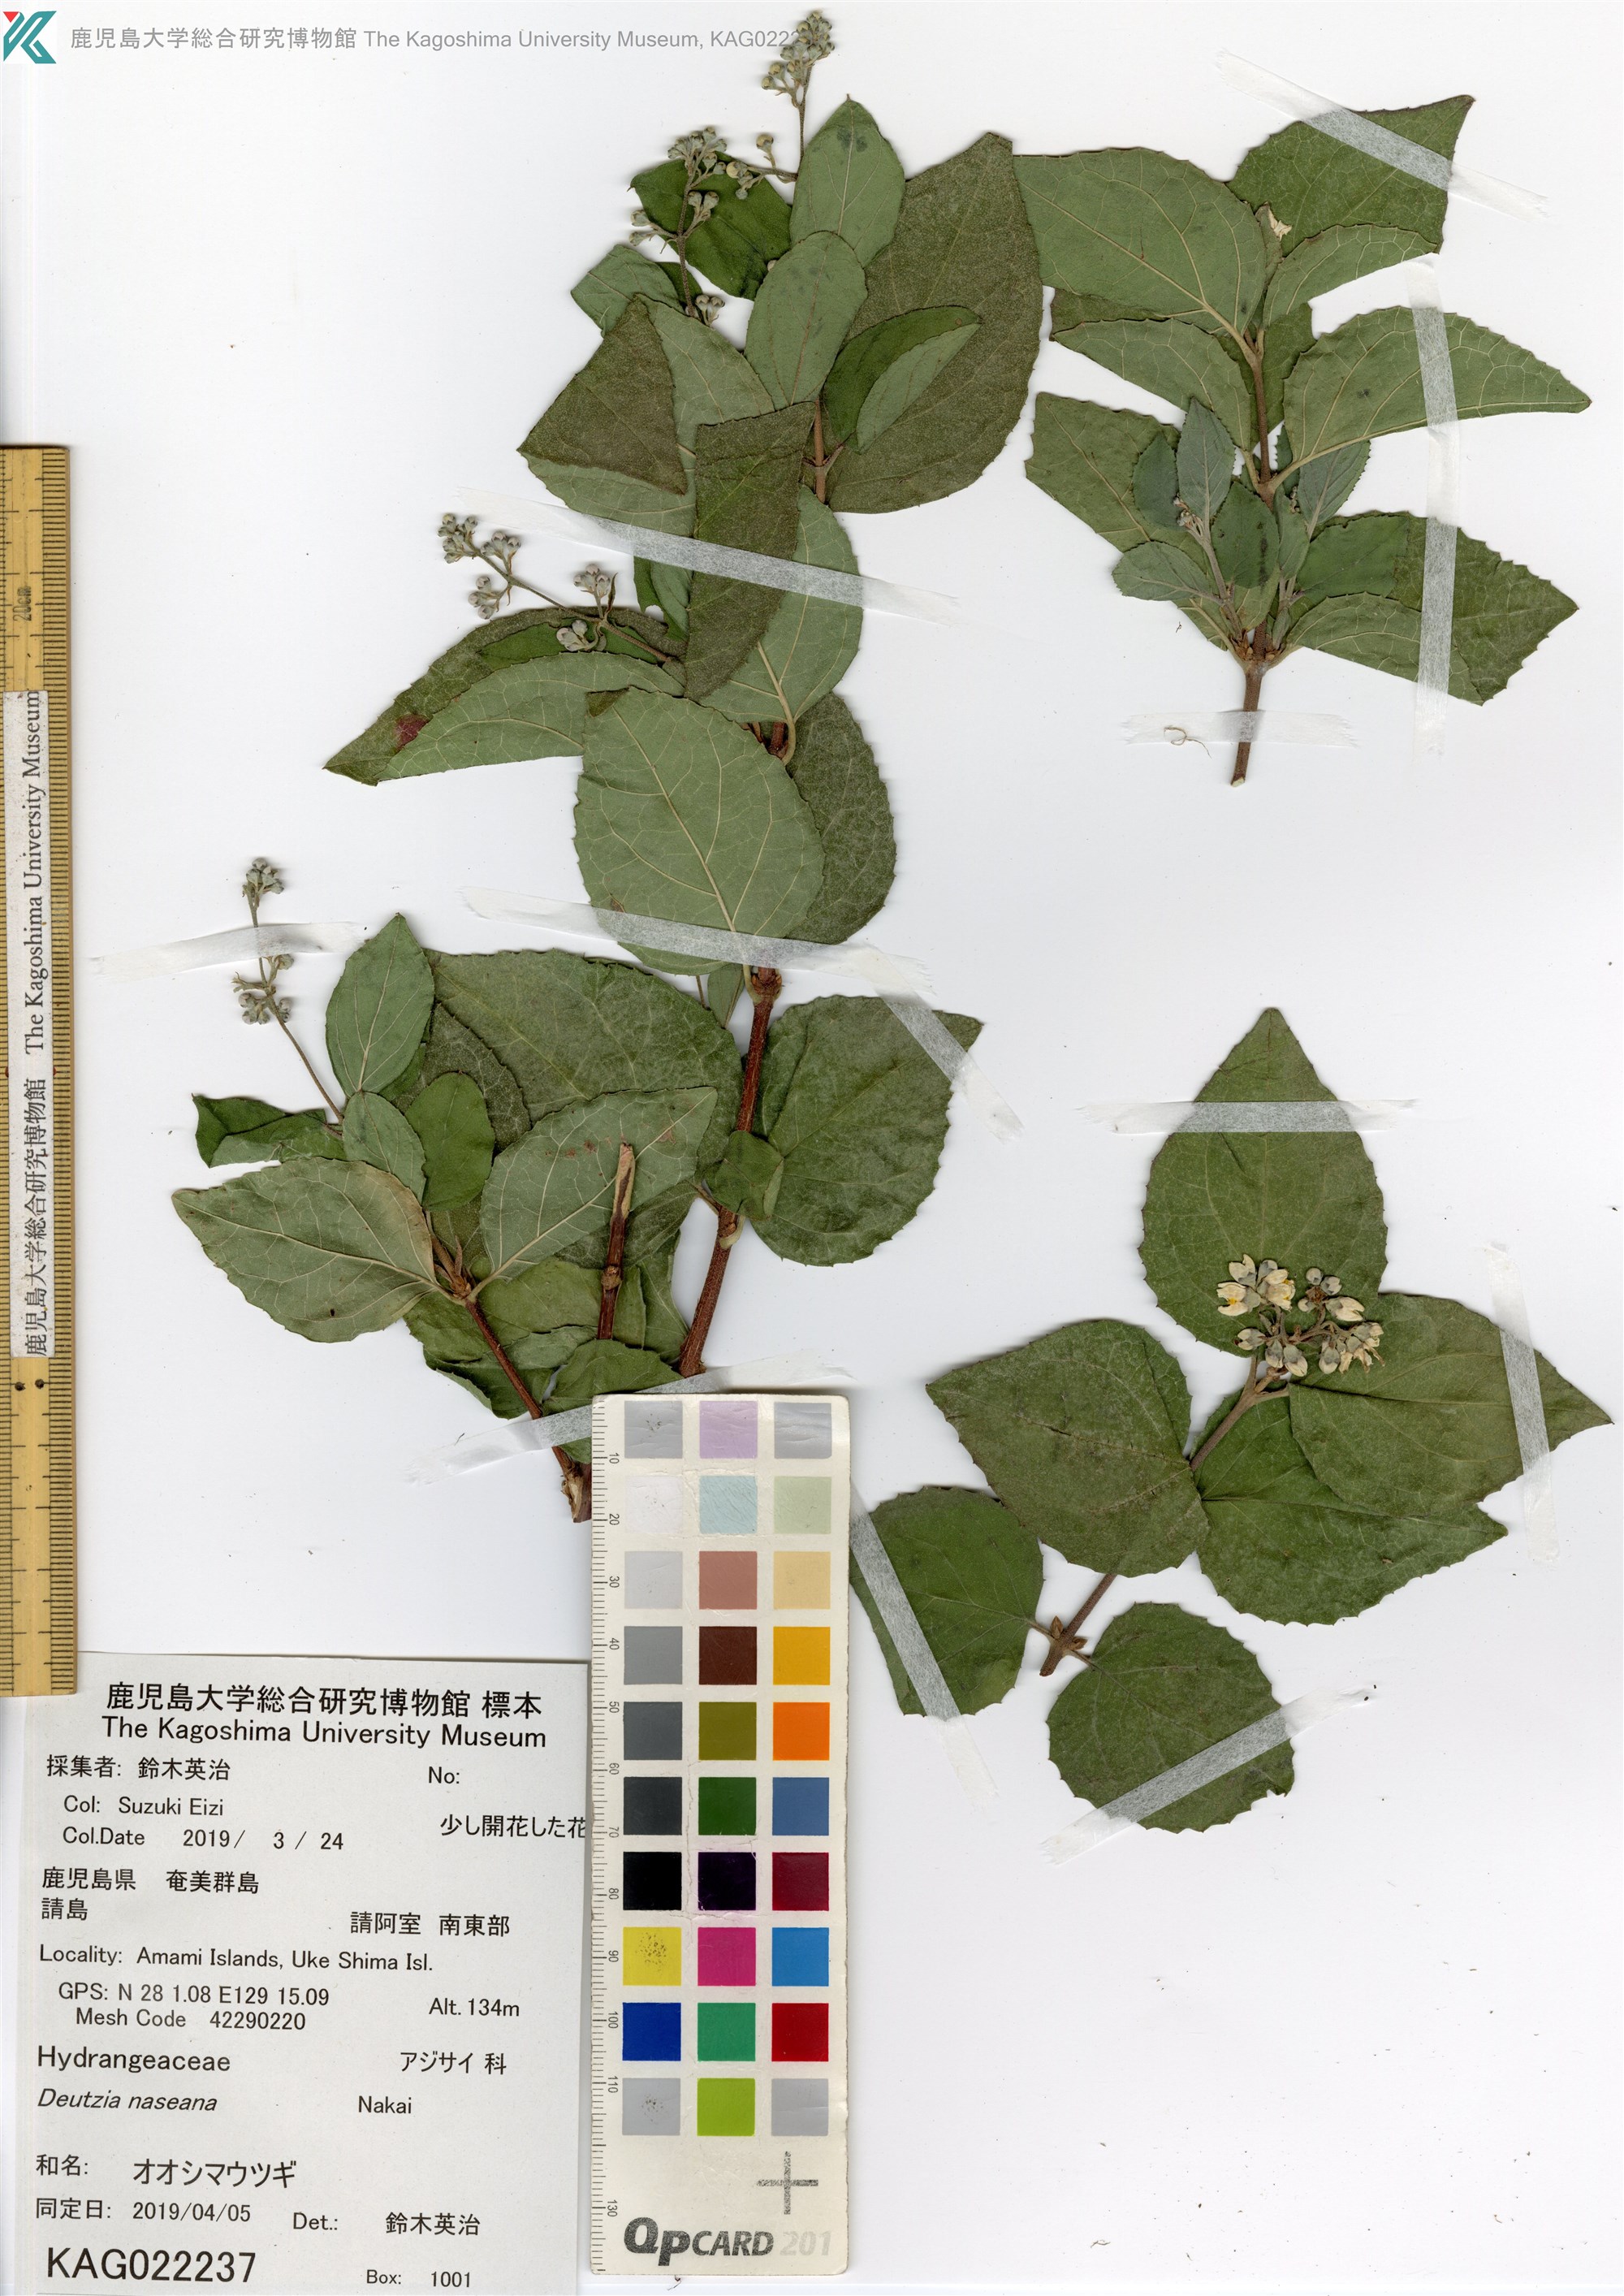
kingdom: Plantae
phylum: Tracheophyta
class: Magnoliopsida
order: Cornales
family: Hydrangeaceae
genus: Deutzia
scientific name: Deutzia naseana
